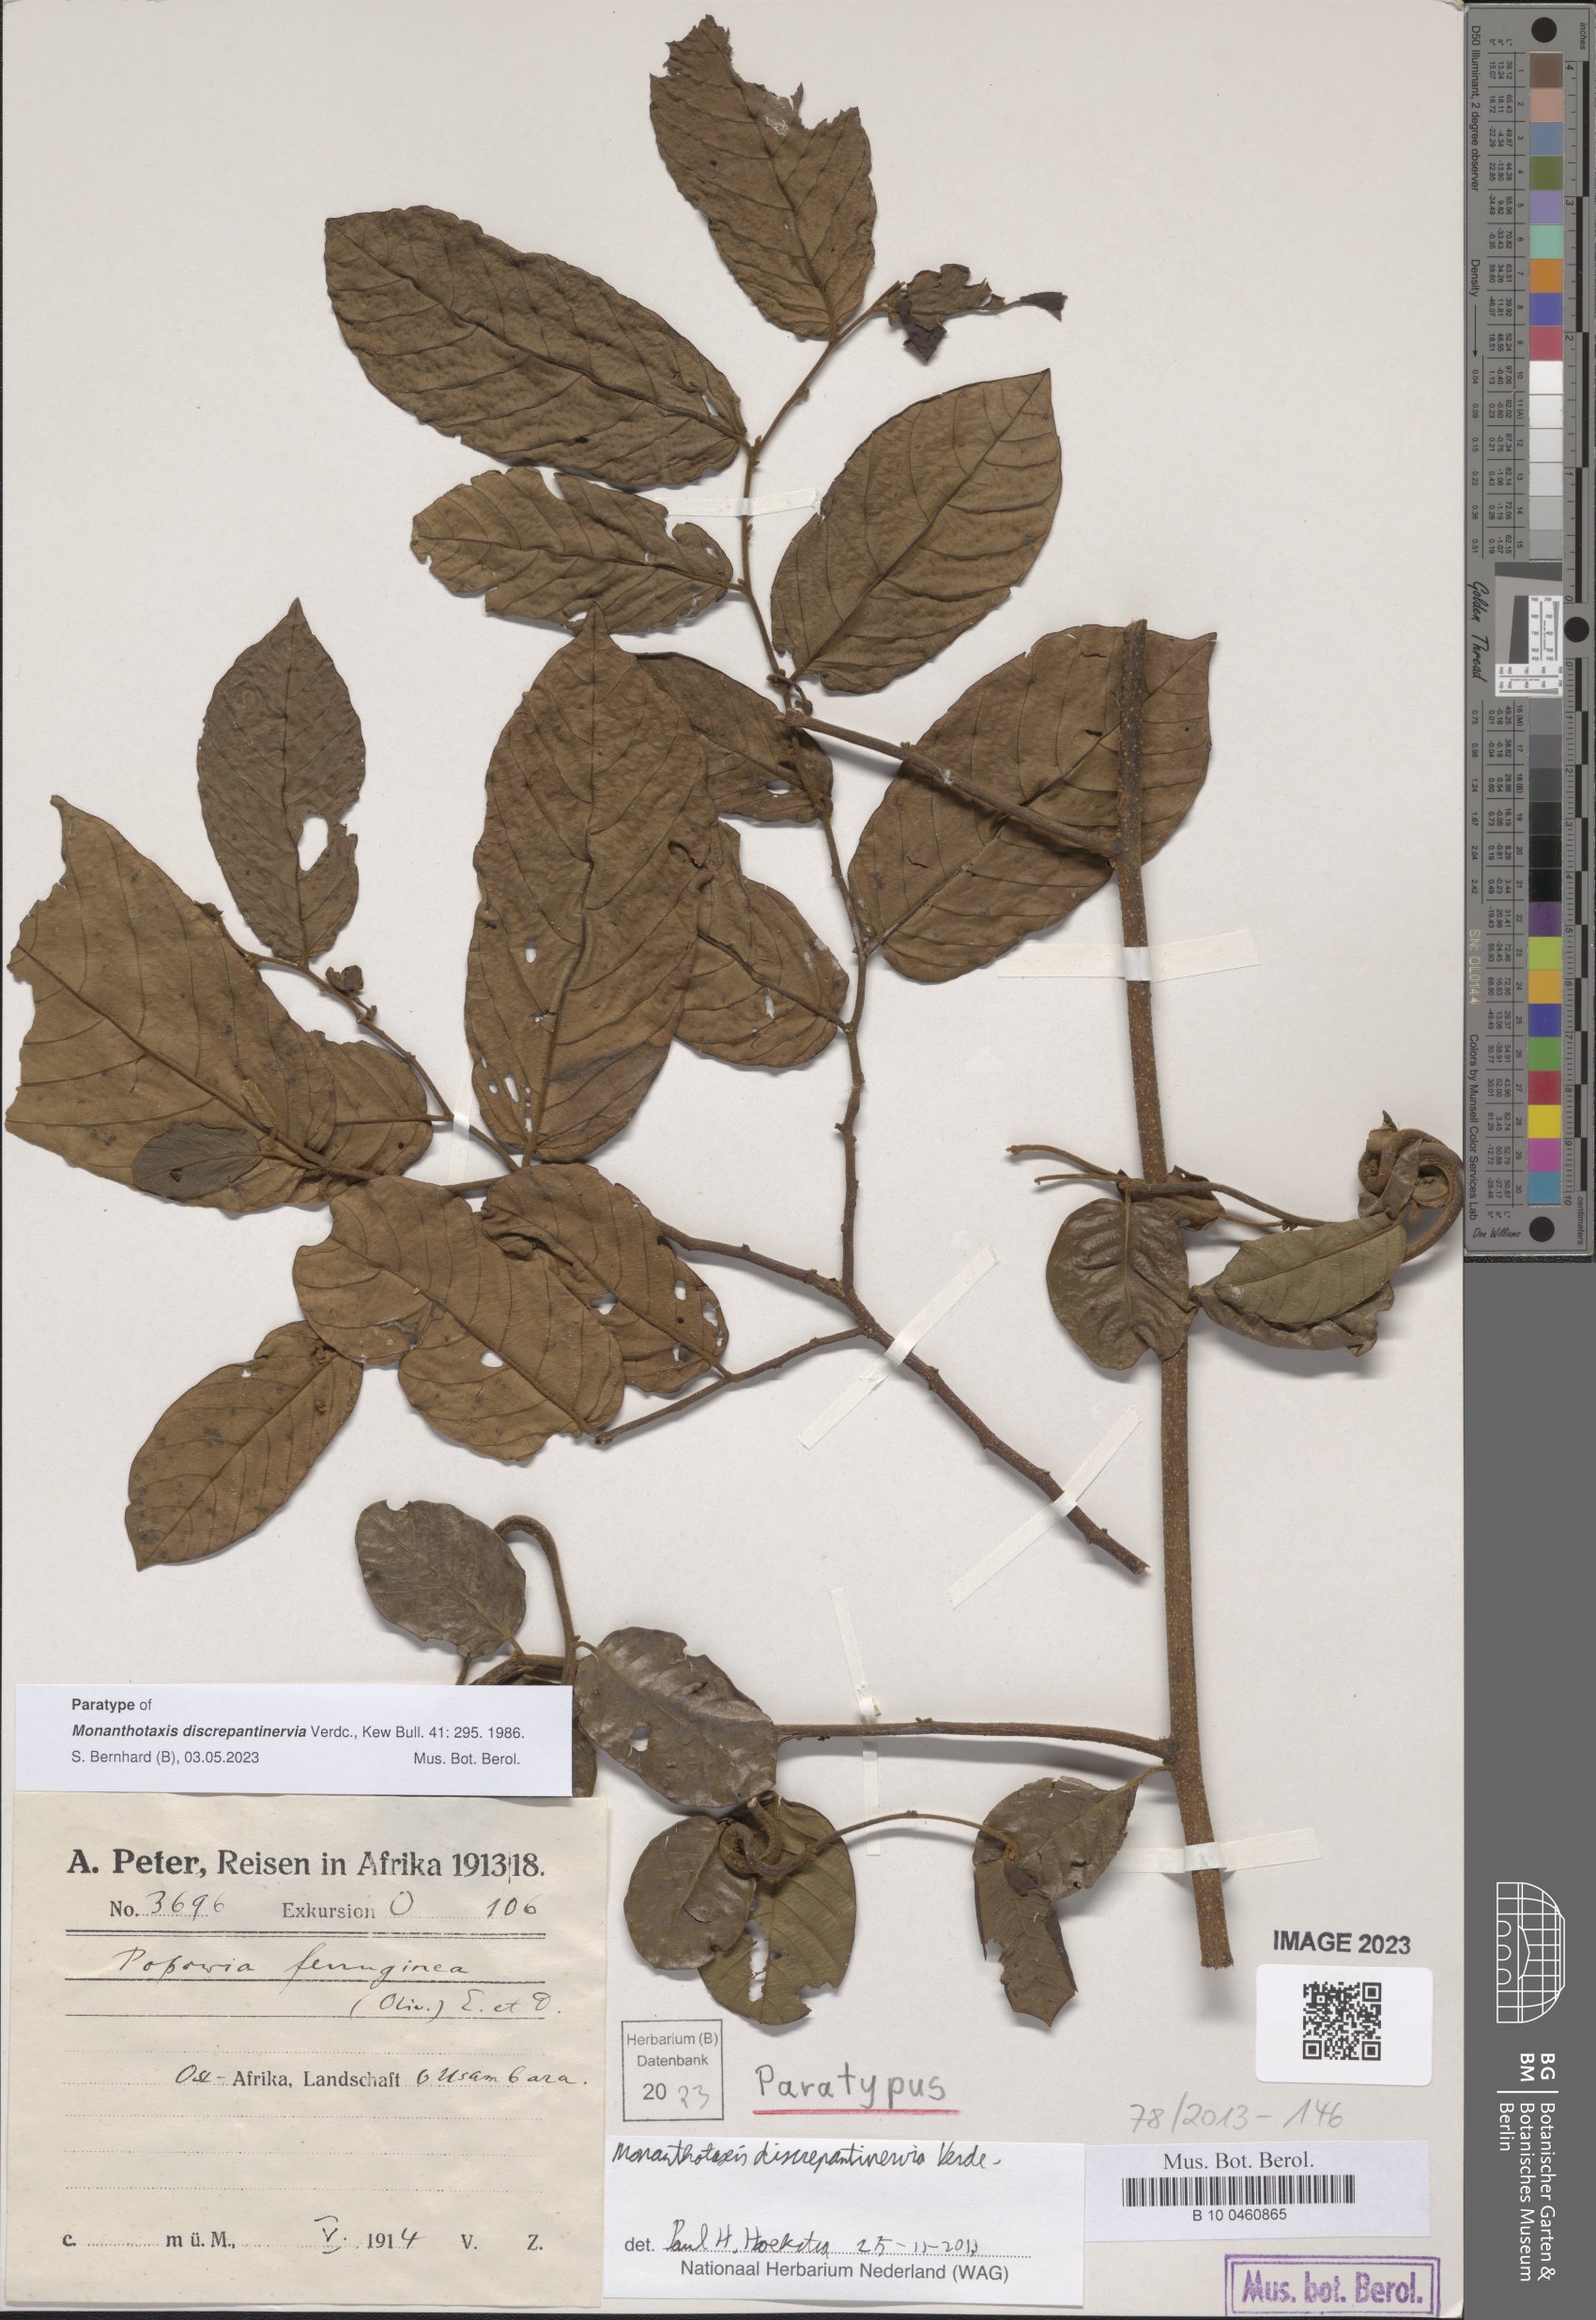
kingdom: Plantae
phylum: Tracheophyta
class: Magnoliopsida
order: Magnoliales
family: Annonaceae
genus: Monanthotaxis
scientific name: Monanthotaxis discrepantinervia
